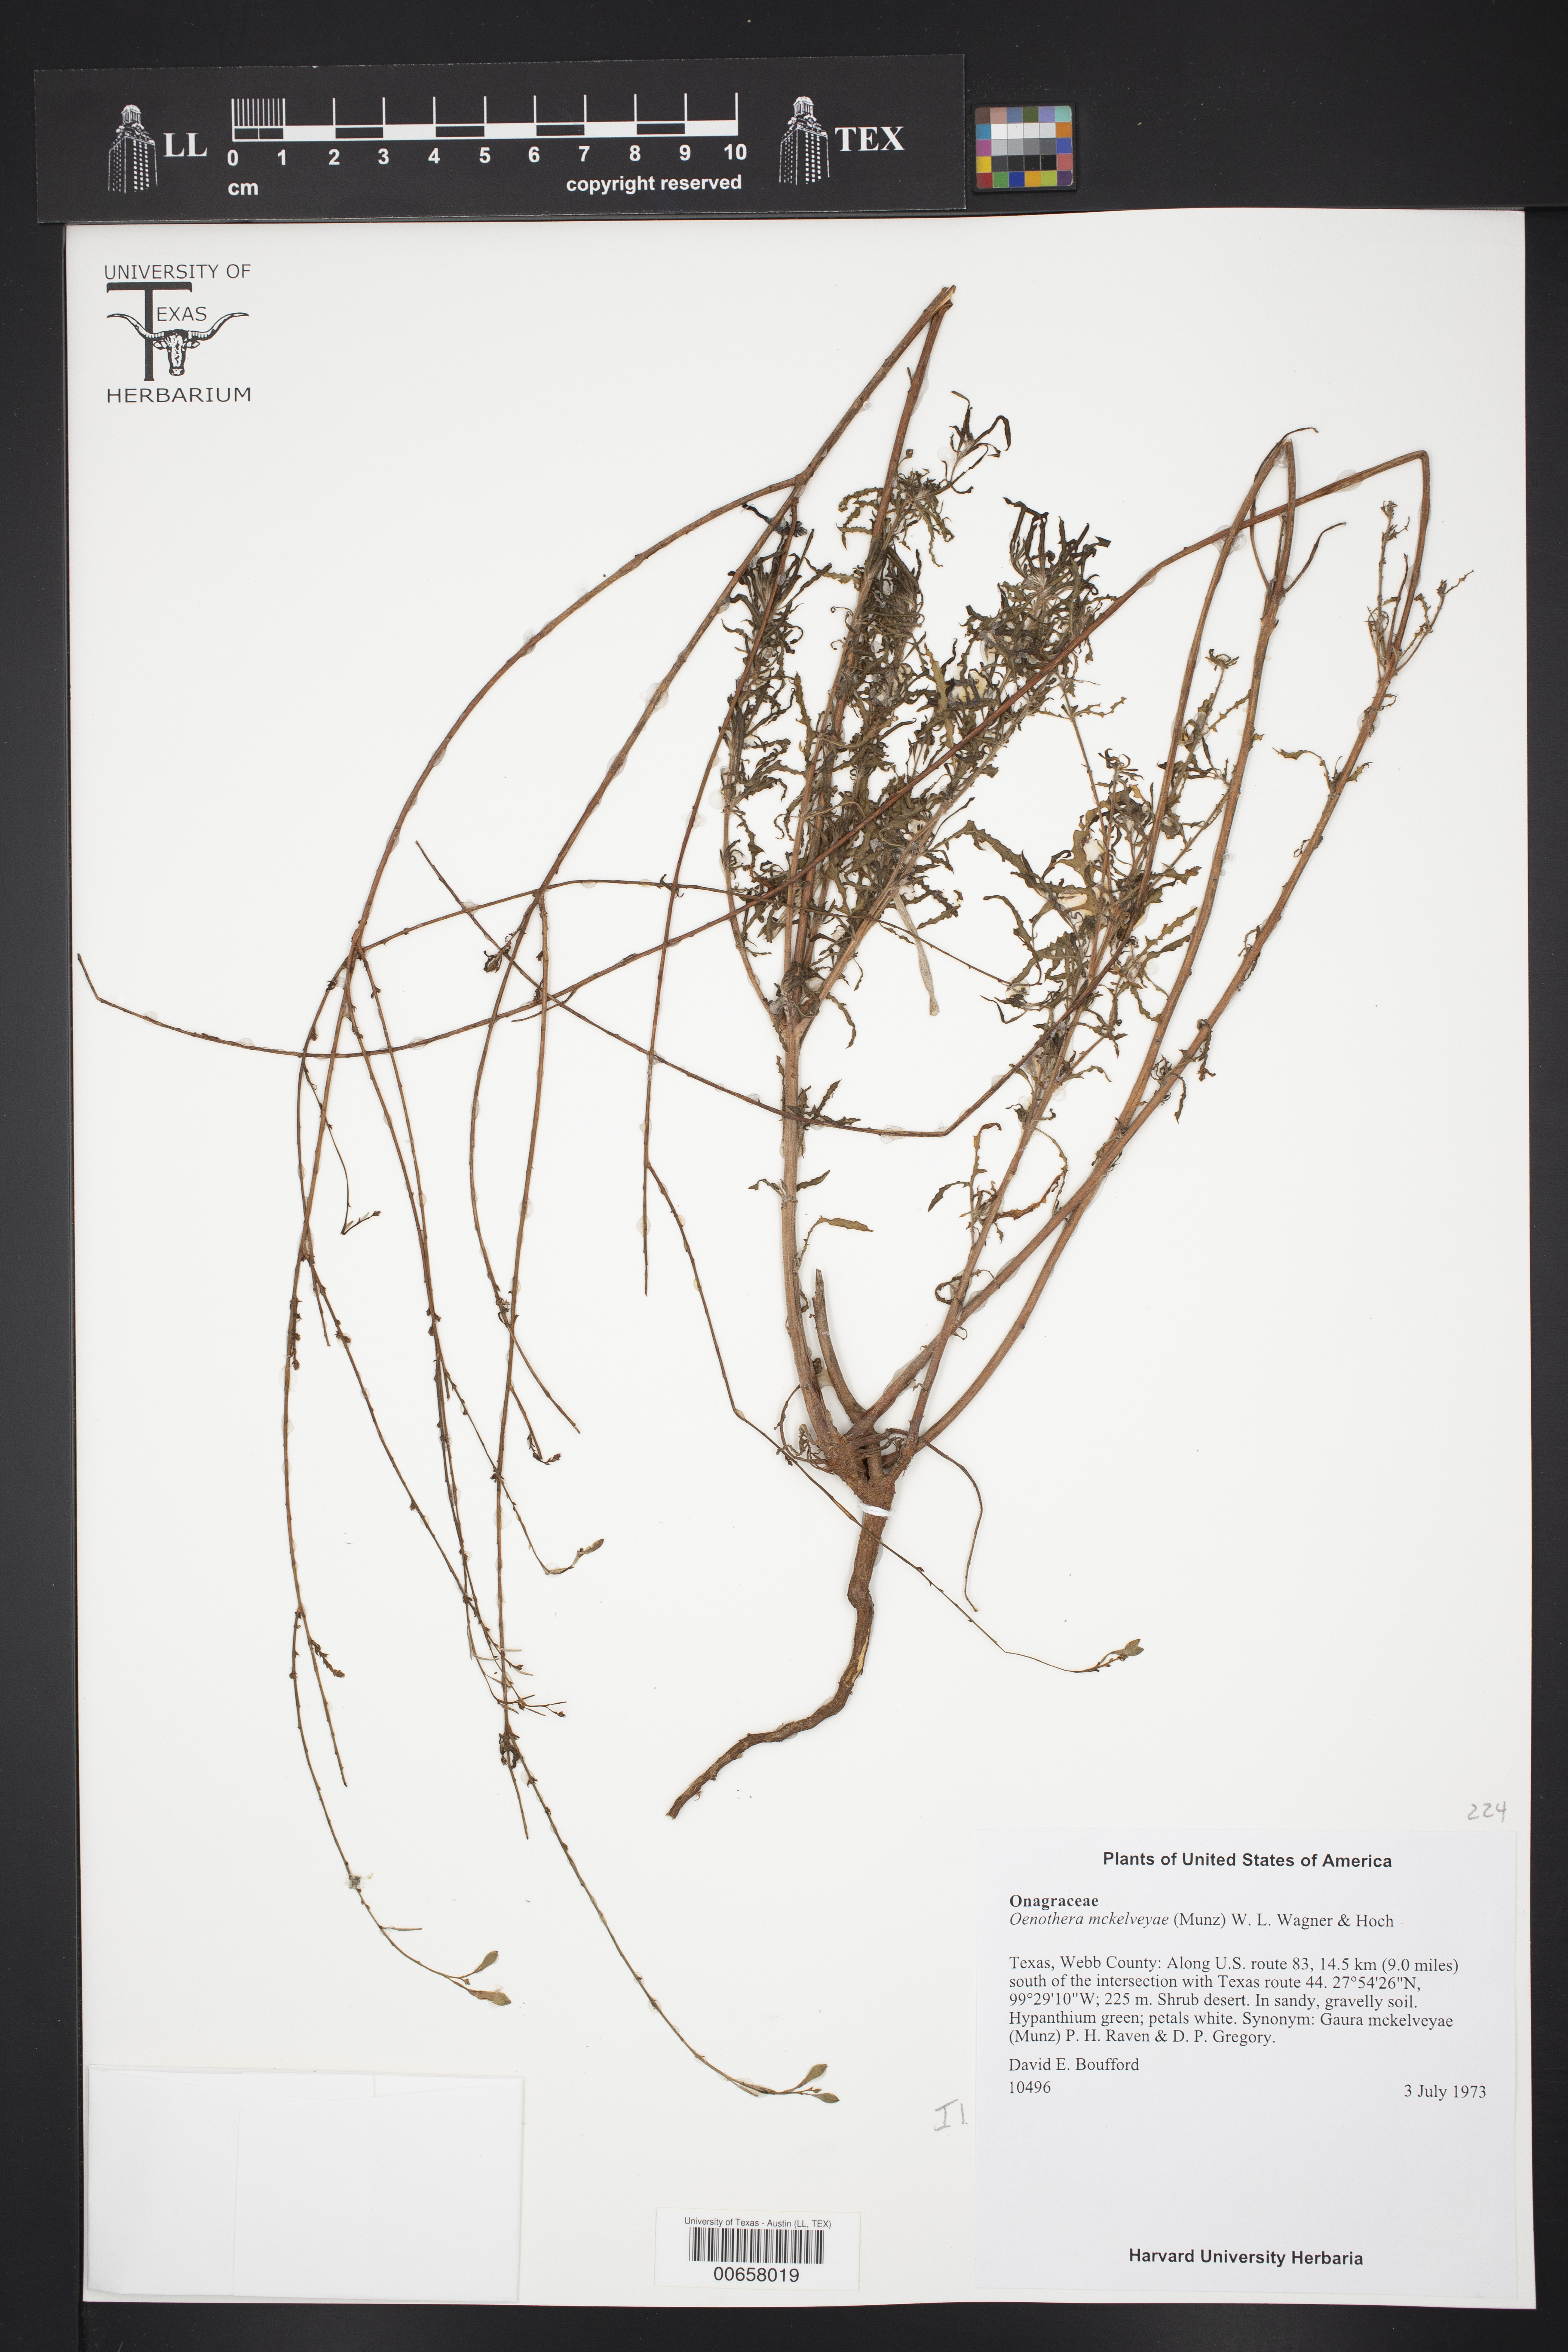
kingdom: Plantae
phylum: Tracheophyta
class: Magnoliopsida
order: Myrtales
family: Onagraceae
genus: Oenothera
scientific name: Oenothera mckelveyae
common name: Mckelvey's beeblossom
